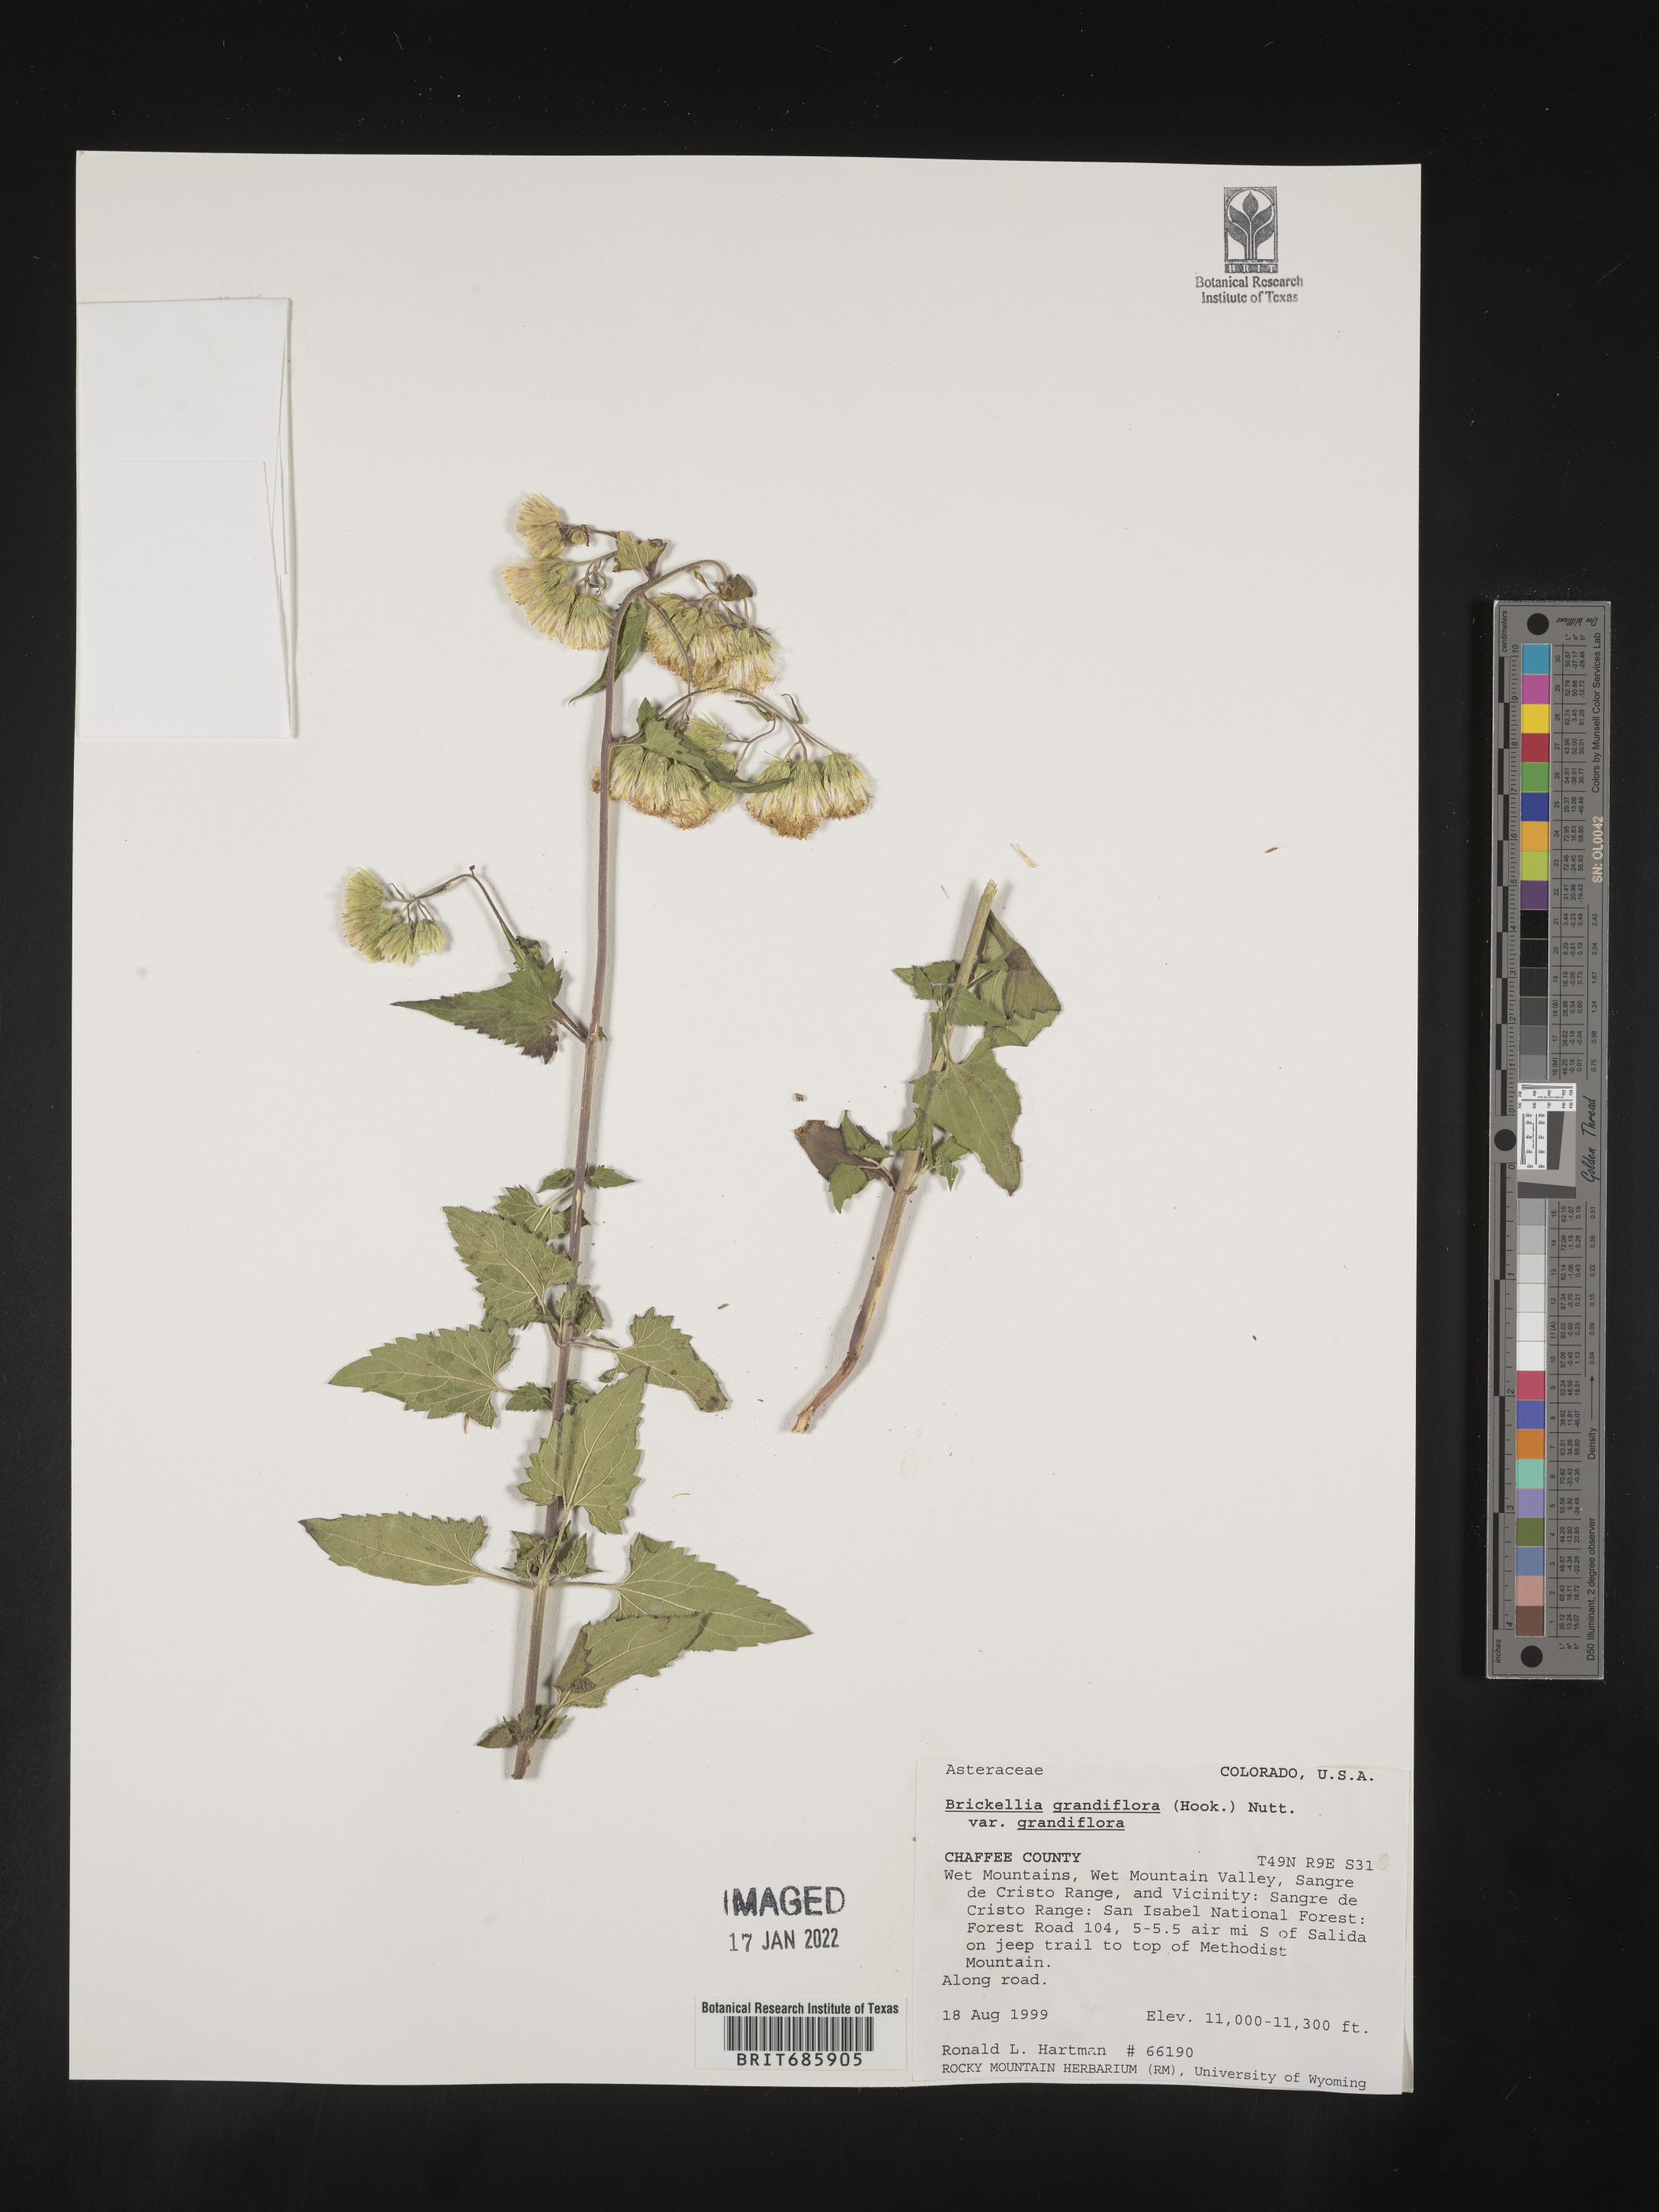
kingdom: Plantae
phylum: Tracheophyta
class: Magnoliopsida
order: Asterales
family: Asteraceae
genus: Brickellia
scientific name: Brickellia grandiflora
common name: Large-flowered brickellia
